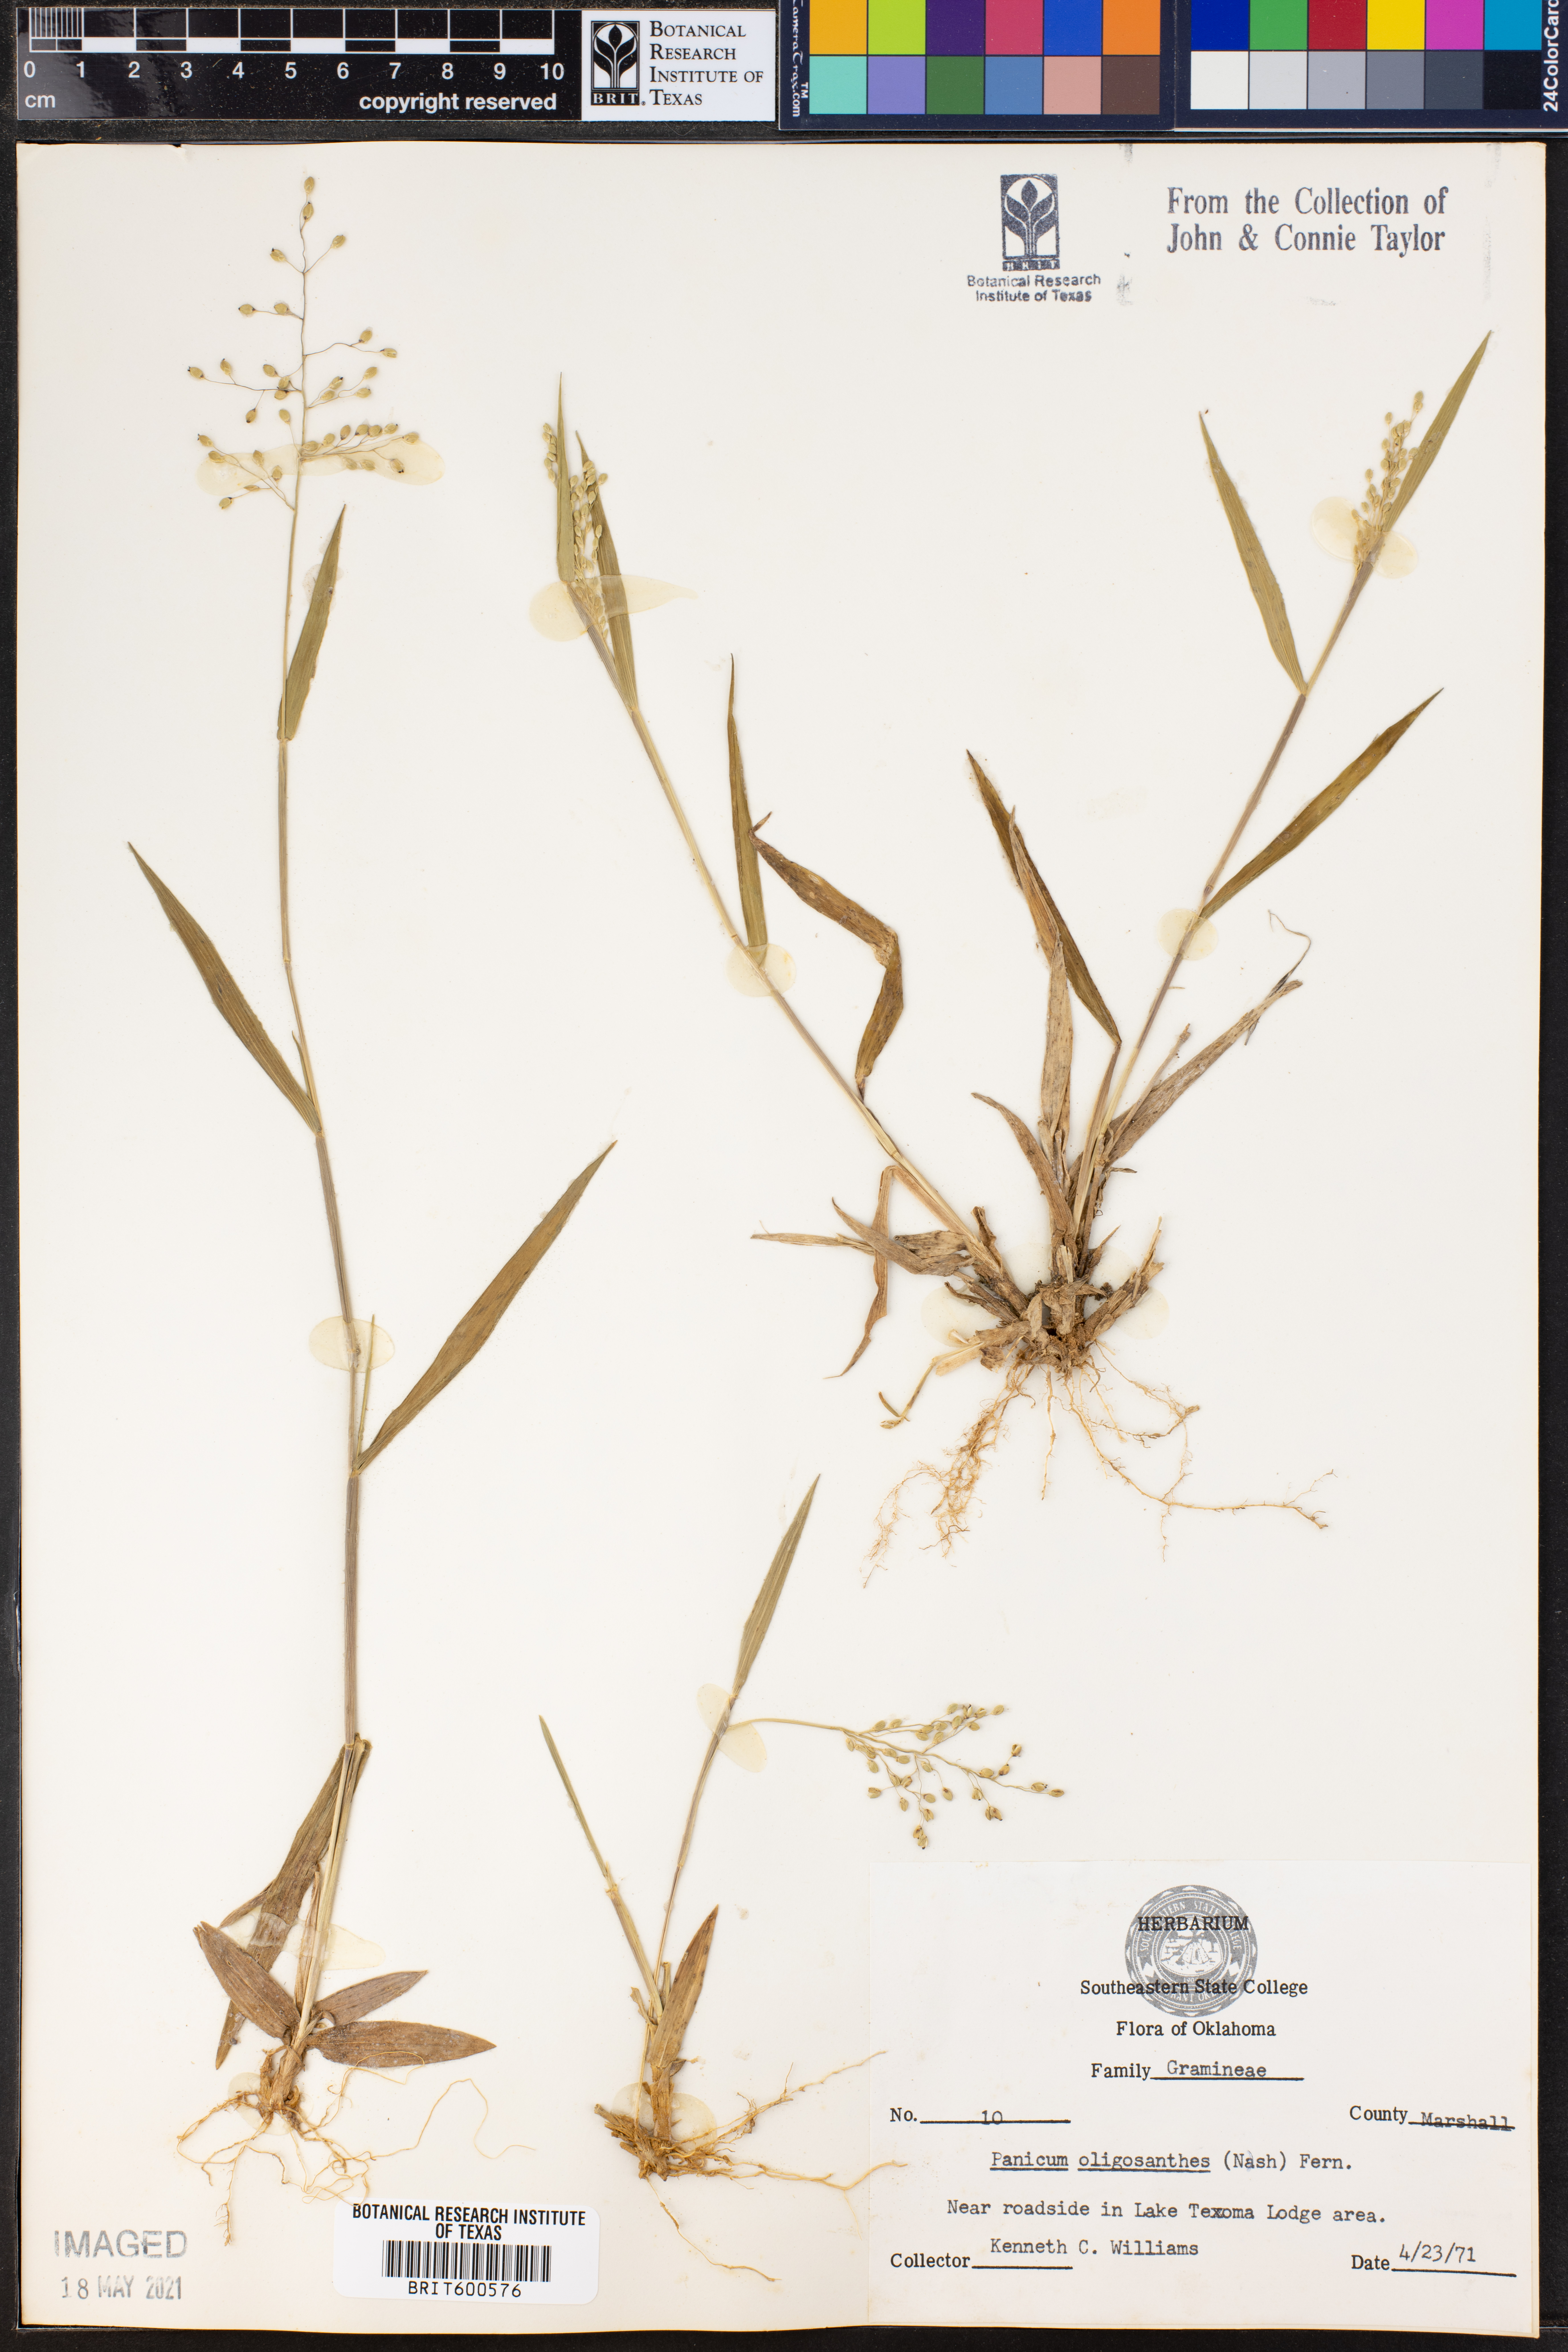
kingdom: Plantae
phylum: Tracheophyta
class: Liliopsida
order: Poales
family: Poaceae
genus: Dichanthelium
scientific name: Dichanthelium oligosanthes
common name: Few-anther obscuregrass
